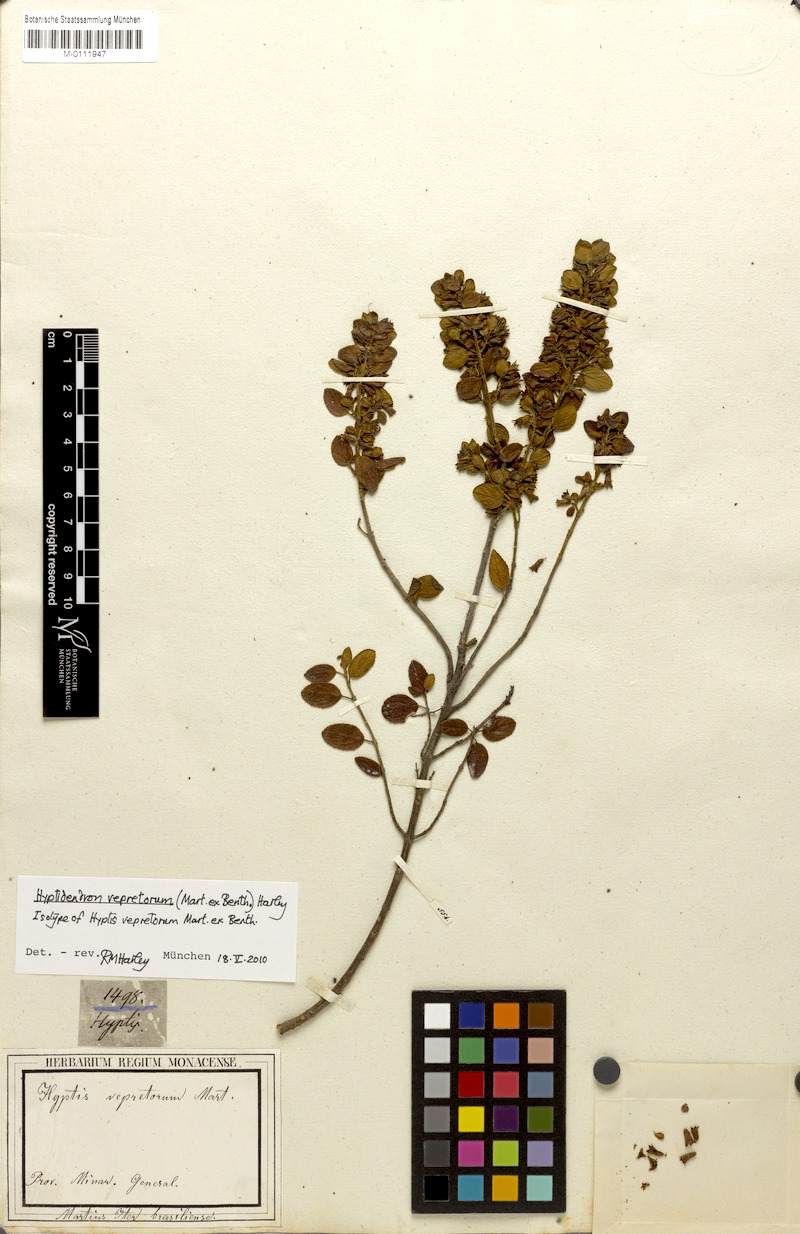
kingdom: Plantae
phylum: Tracheophyta
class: Magnoliopsida
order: Lamiales
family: Lamiaceae
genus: Hyptidendron
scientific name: Hyptidendron vepretorum
